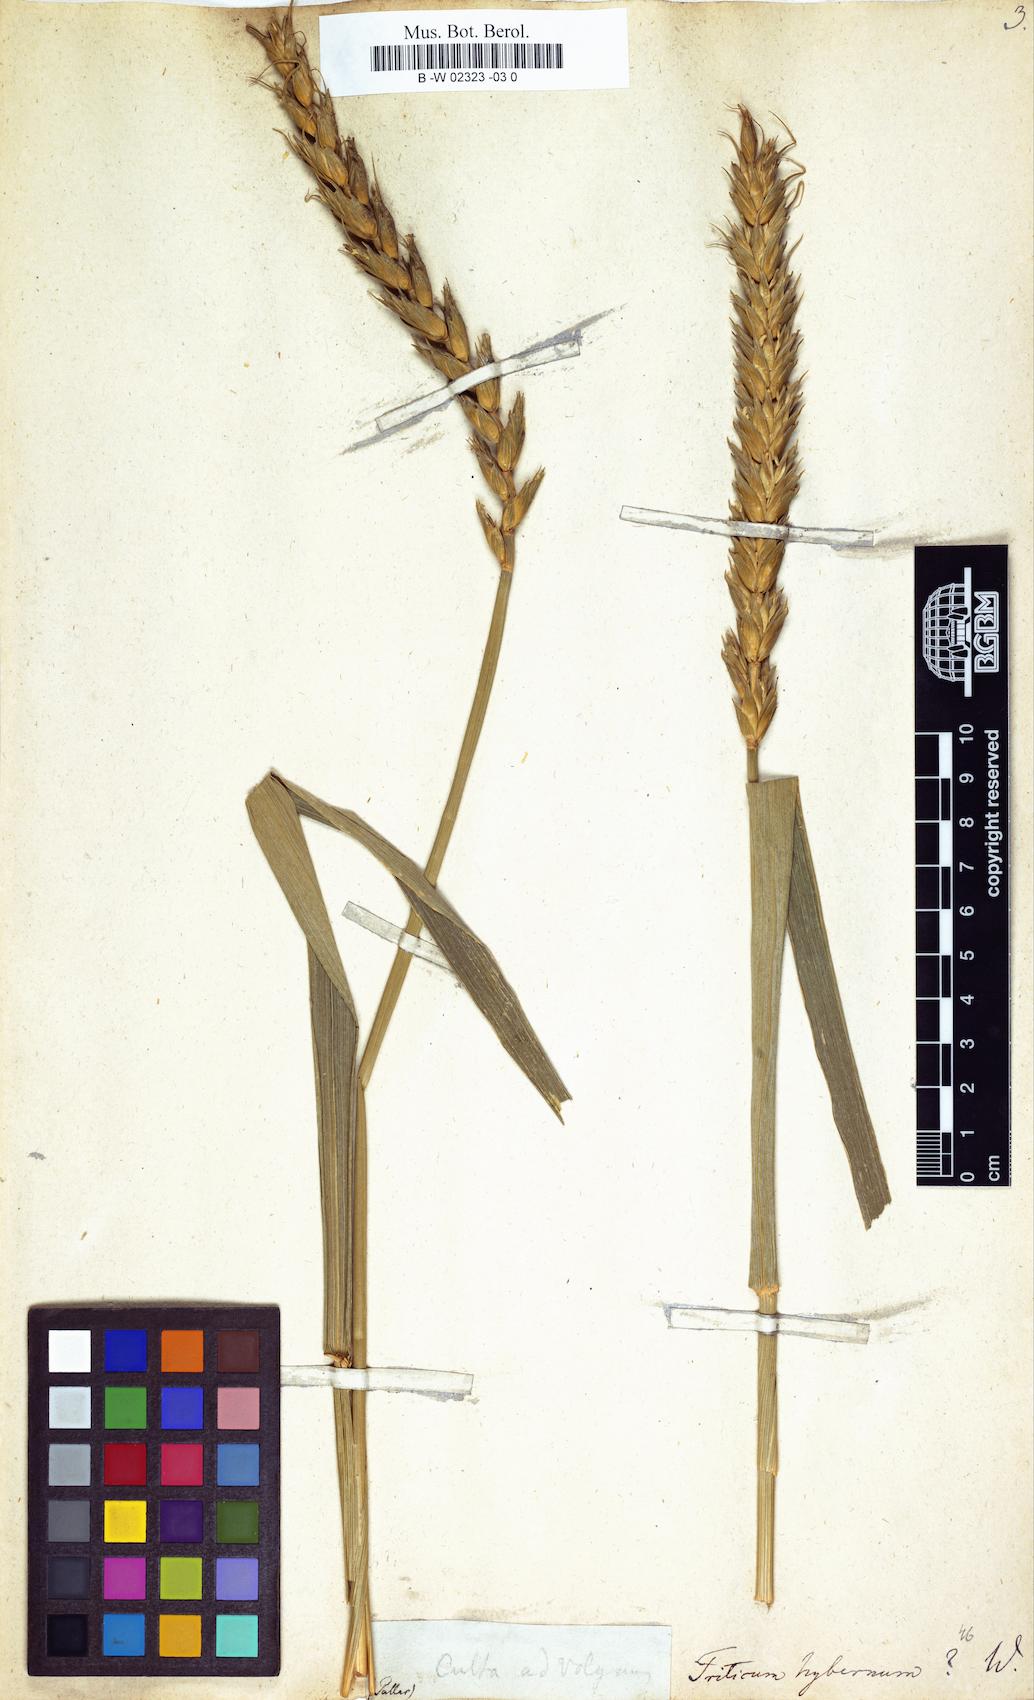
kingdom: Plantae
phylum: Tracheophyta
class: Liliopsida
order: Poales
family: Poaceae
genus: Triticum
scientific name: Triticum aestivum
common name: Common wheat
